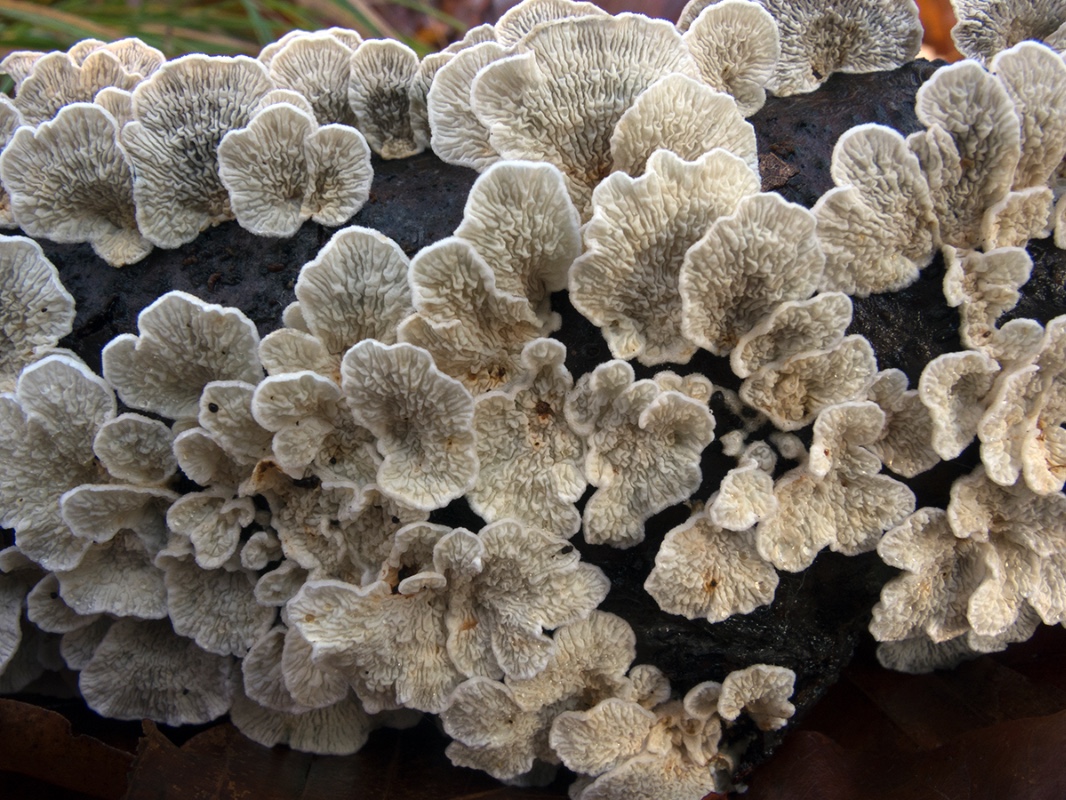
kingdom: Fungi
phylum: Basidiomycota
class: Agaricomycetes
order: Amylocorticiales
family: Amylocorticiaceae
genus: Plicaturopsis
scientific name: Plicaturopsis crispa
